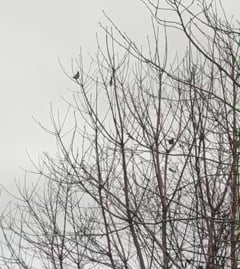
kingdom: Animalia
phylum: Chordata
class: Aves
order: Passeriformes
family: Turdidae
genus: Turdus
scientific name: Turdus pilaris
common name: Fieldfare
